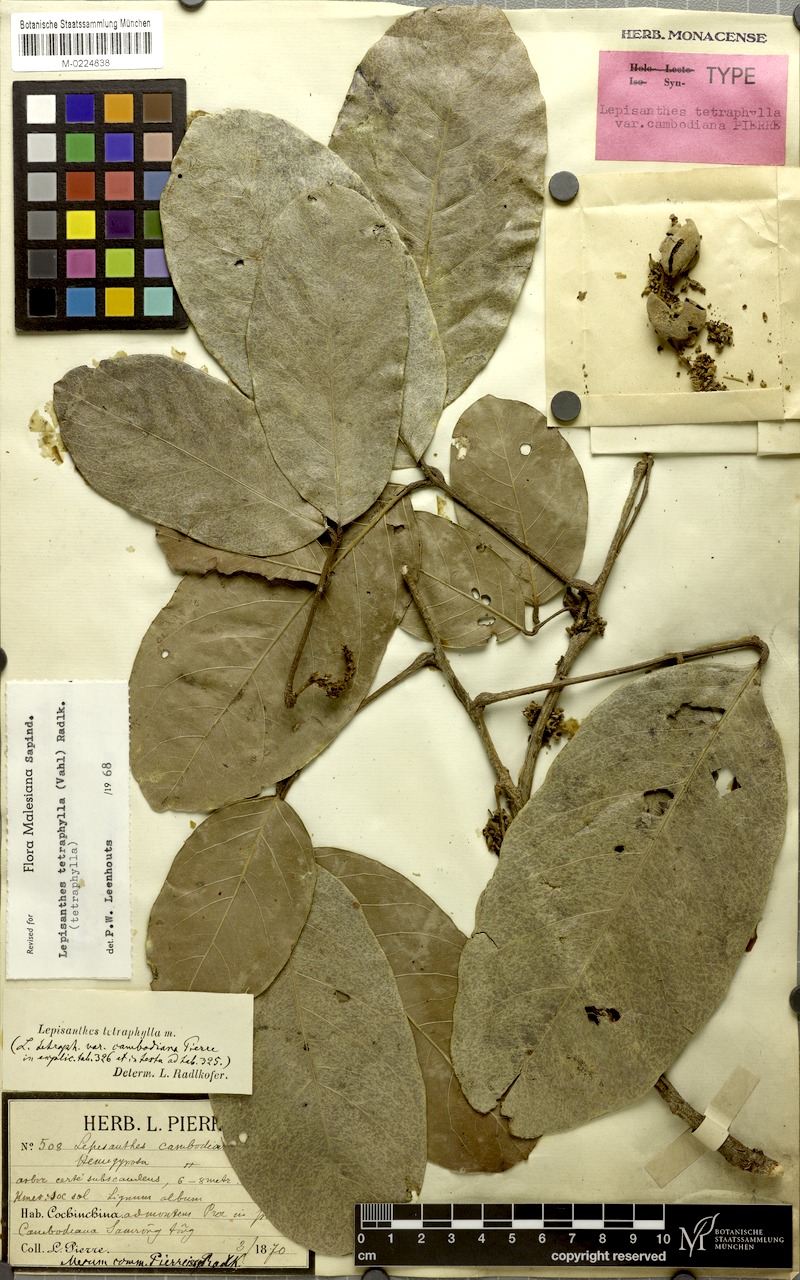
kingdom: Plantae
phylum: Tracheophyta
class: Magnoliopsida
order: Sapindales
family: Sapindaceae
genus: Lepisanthes
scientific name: Lepisanthes tetraphylla
